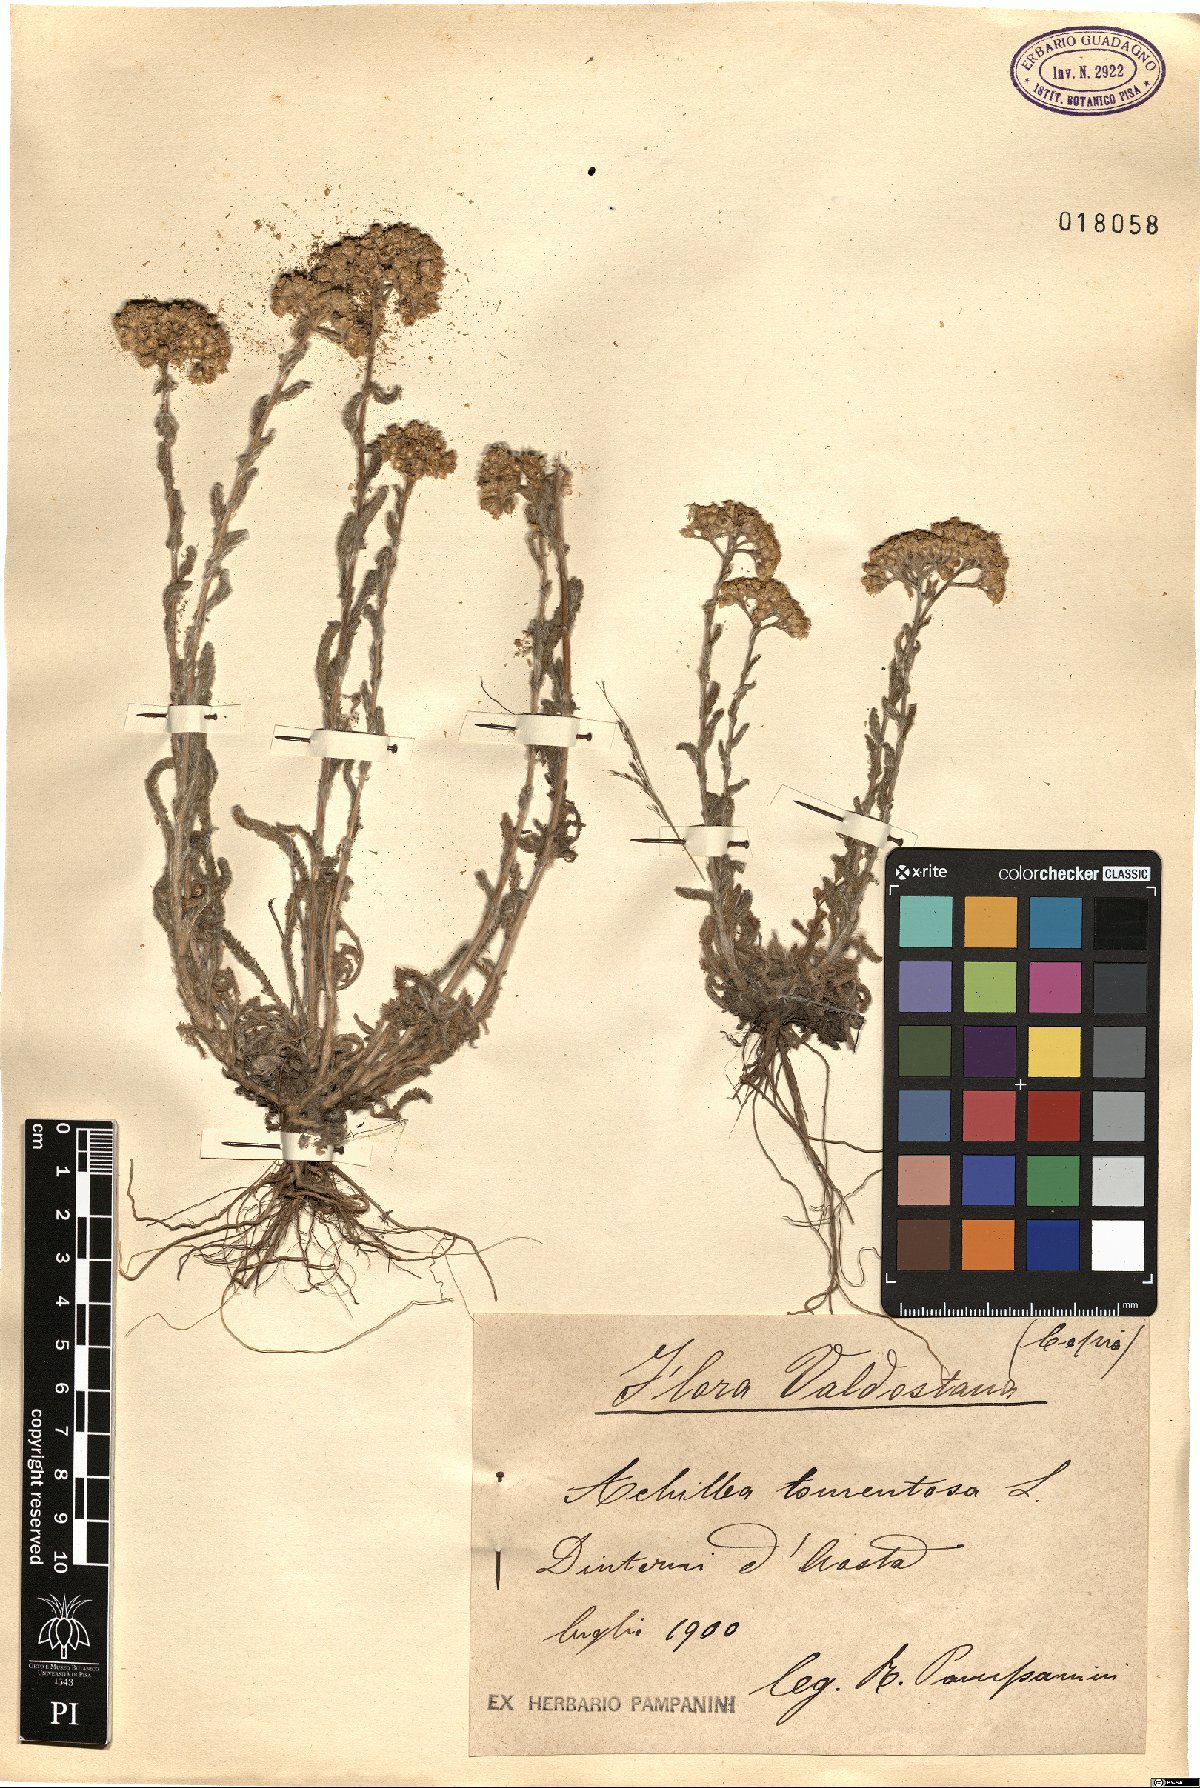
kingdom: Plantae
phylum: Tracheophyta
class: Magnoliopsida
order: Asterales
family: Asteraceae
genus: Achillea
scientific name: Achillea tomentosa
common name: Yellow milfoil
